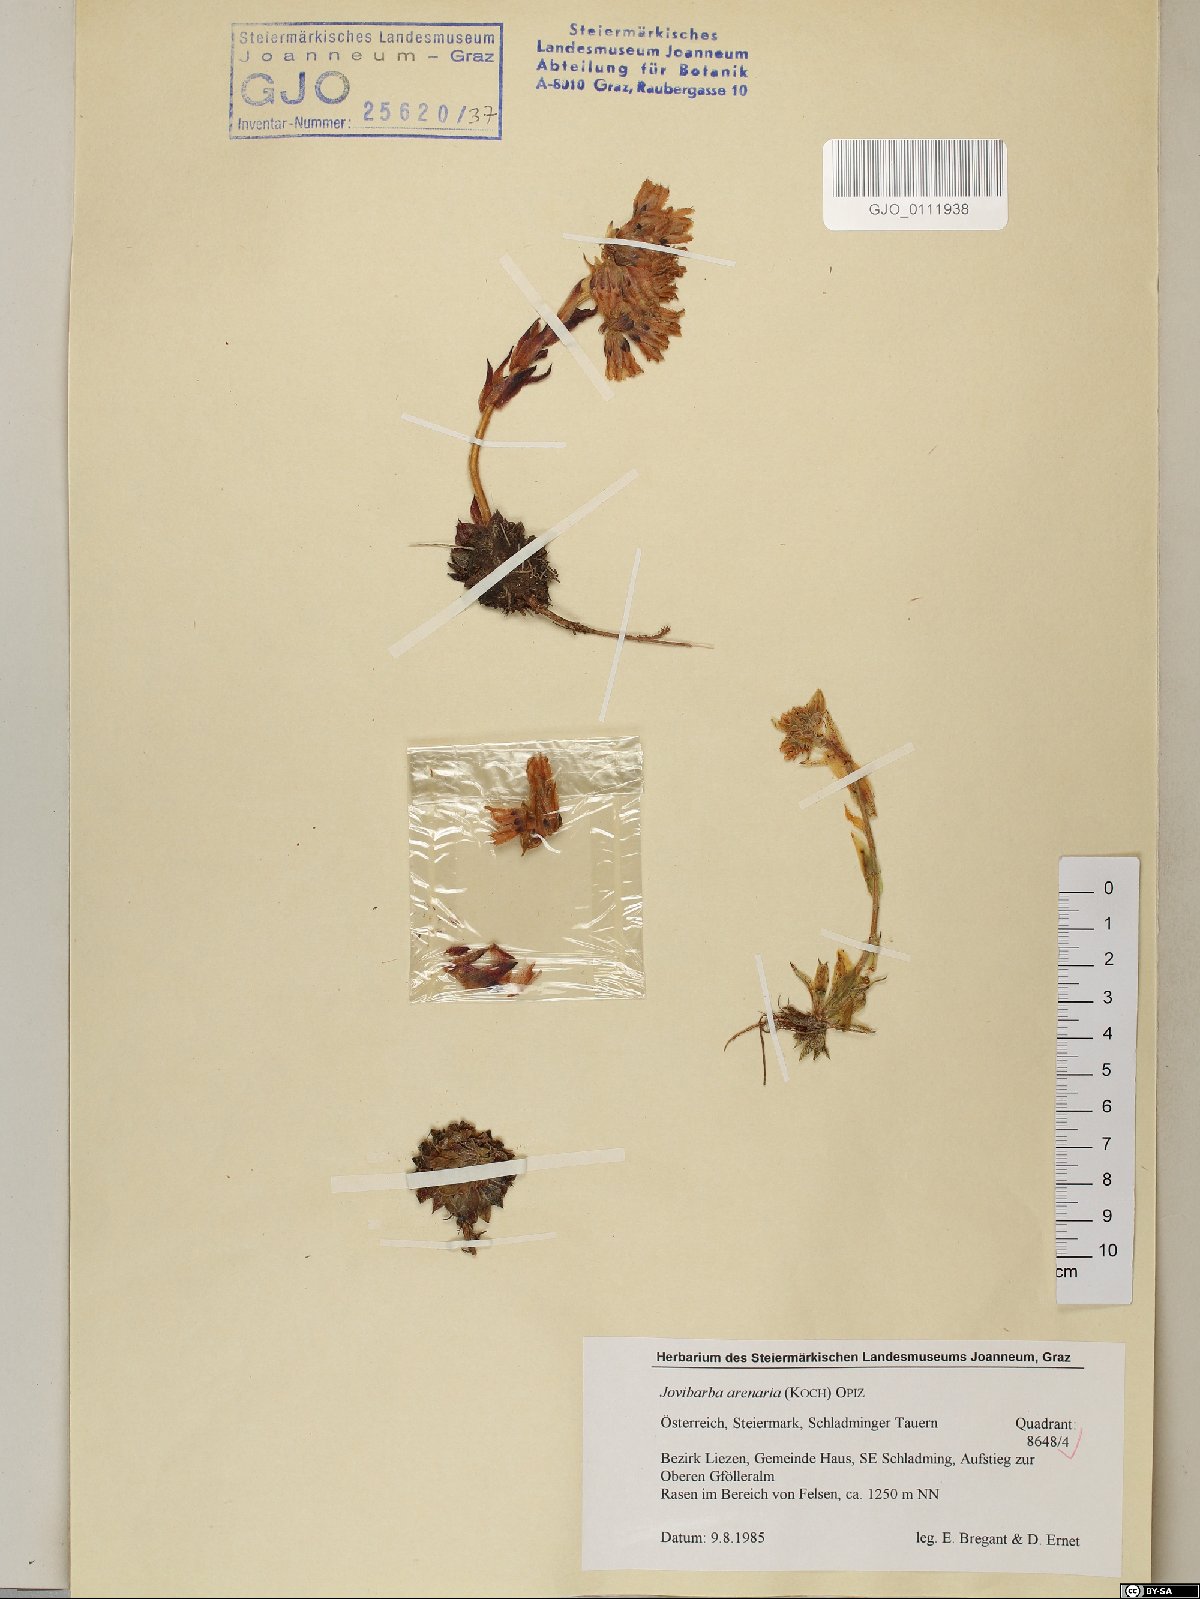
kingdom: Plantae
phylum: Tracheophyta
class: Magnoliopsida
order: Saxifragales
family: Crassulaceae
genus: Sempervivum
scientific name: Sempervivum globiferum
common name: Rolling hen-and-chicks
